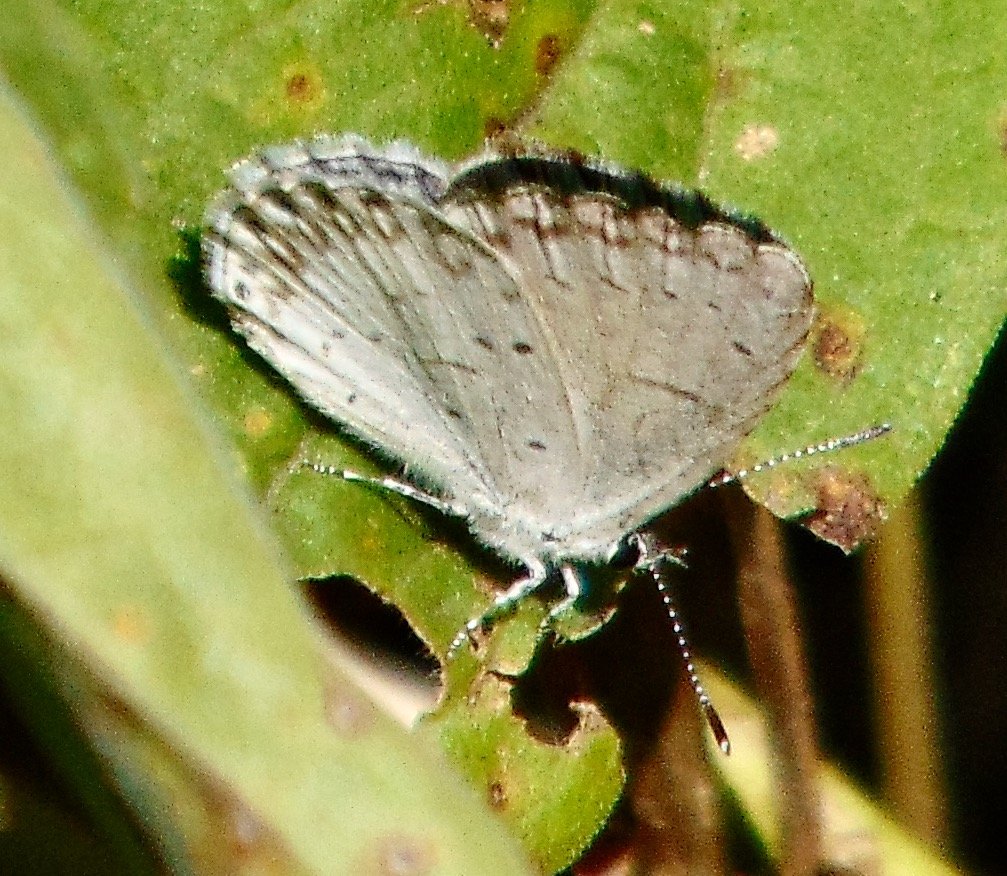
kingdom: Animalia
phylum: Arthropoda
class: Insecta
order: Lepidoptera
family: Lycaenidae
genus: Cyaniris
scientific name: Cyaniris neglecta
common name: Summer Azure
